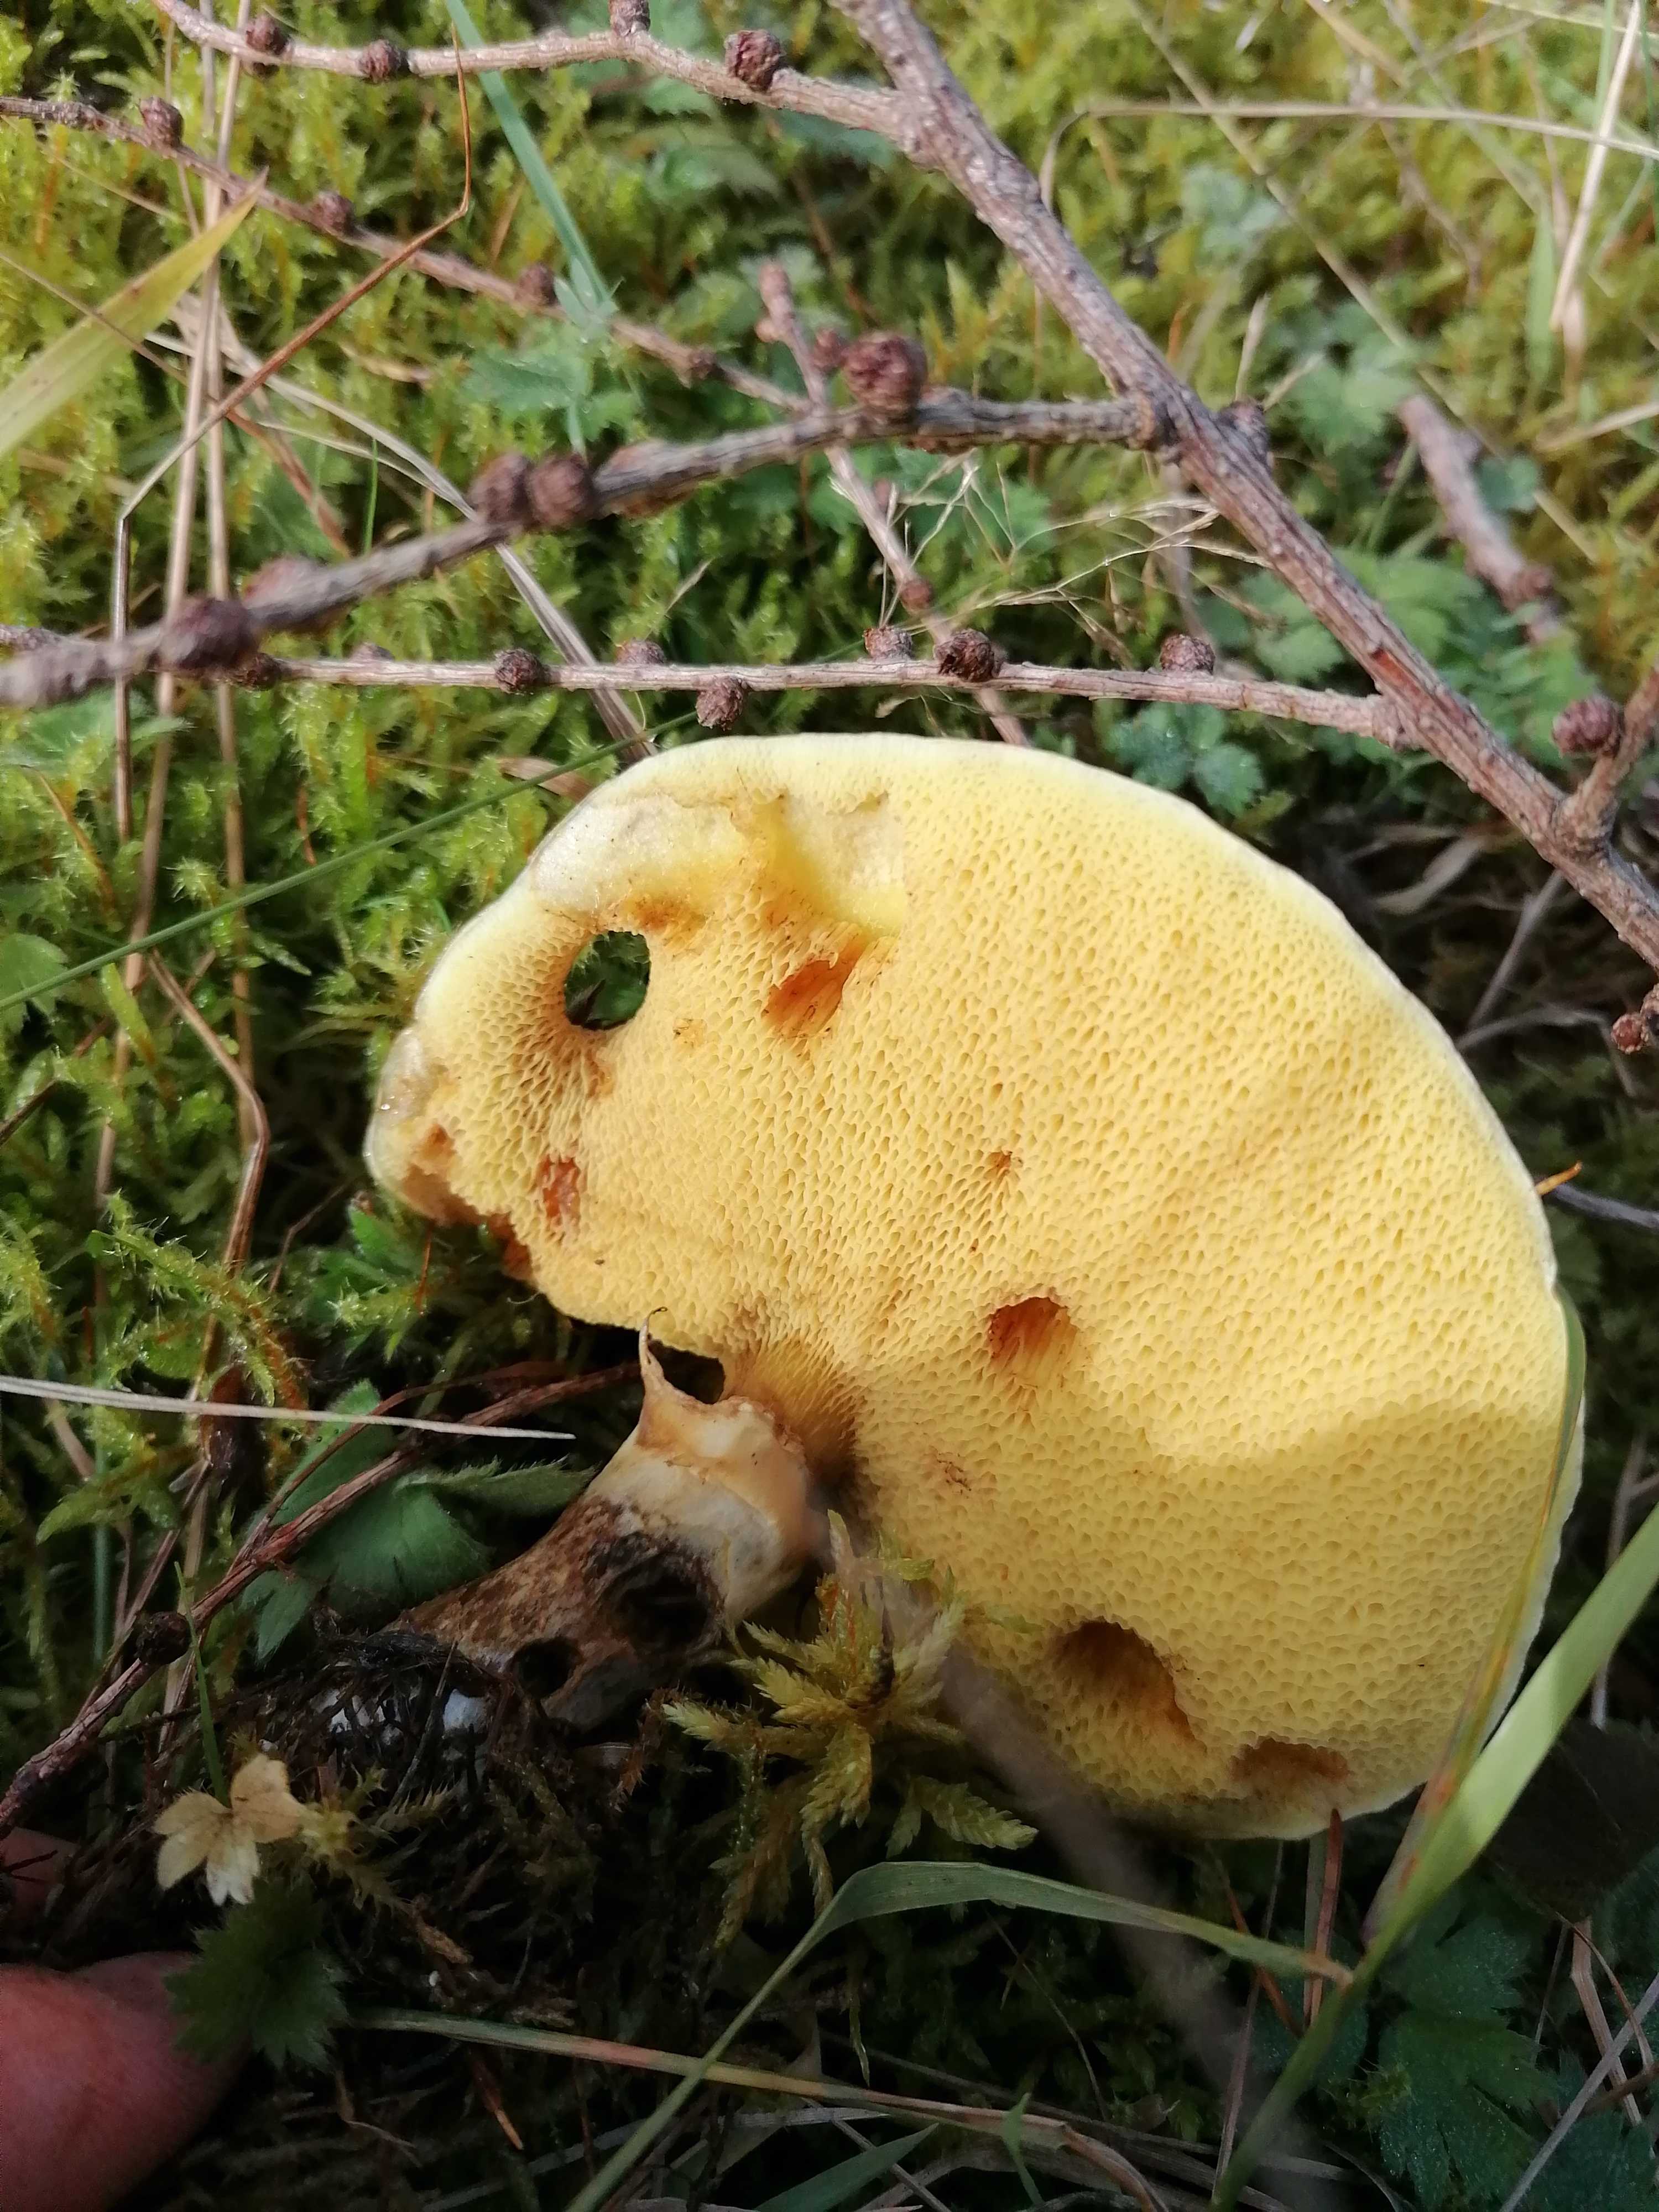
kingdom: Fungi
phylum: Basidiomycota
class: Agaricomycetes
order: Boletales
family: Suillaceae
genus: Suillus
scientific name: Suillus grevillei
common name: lærke-slimrørhat
